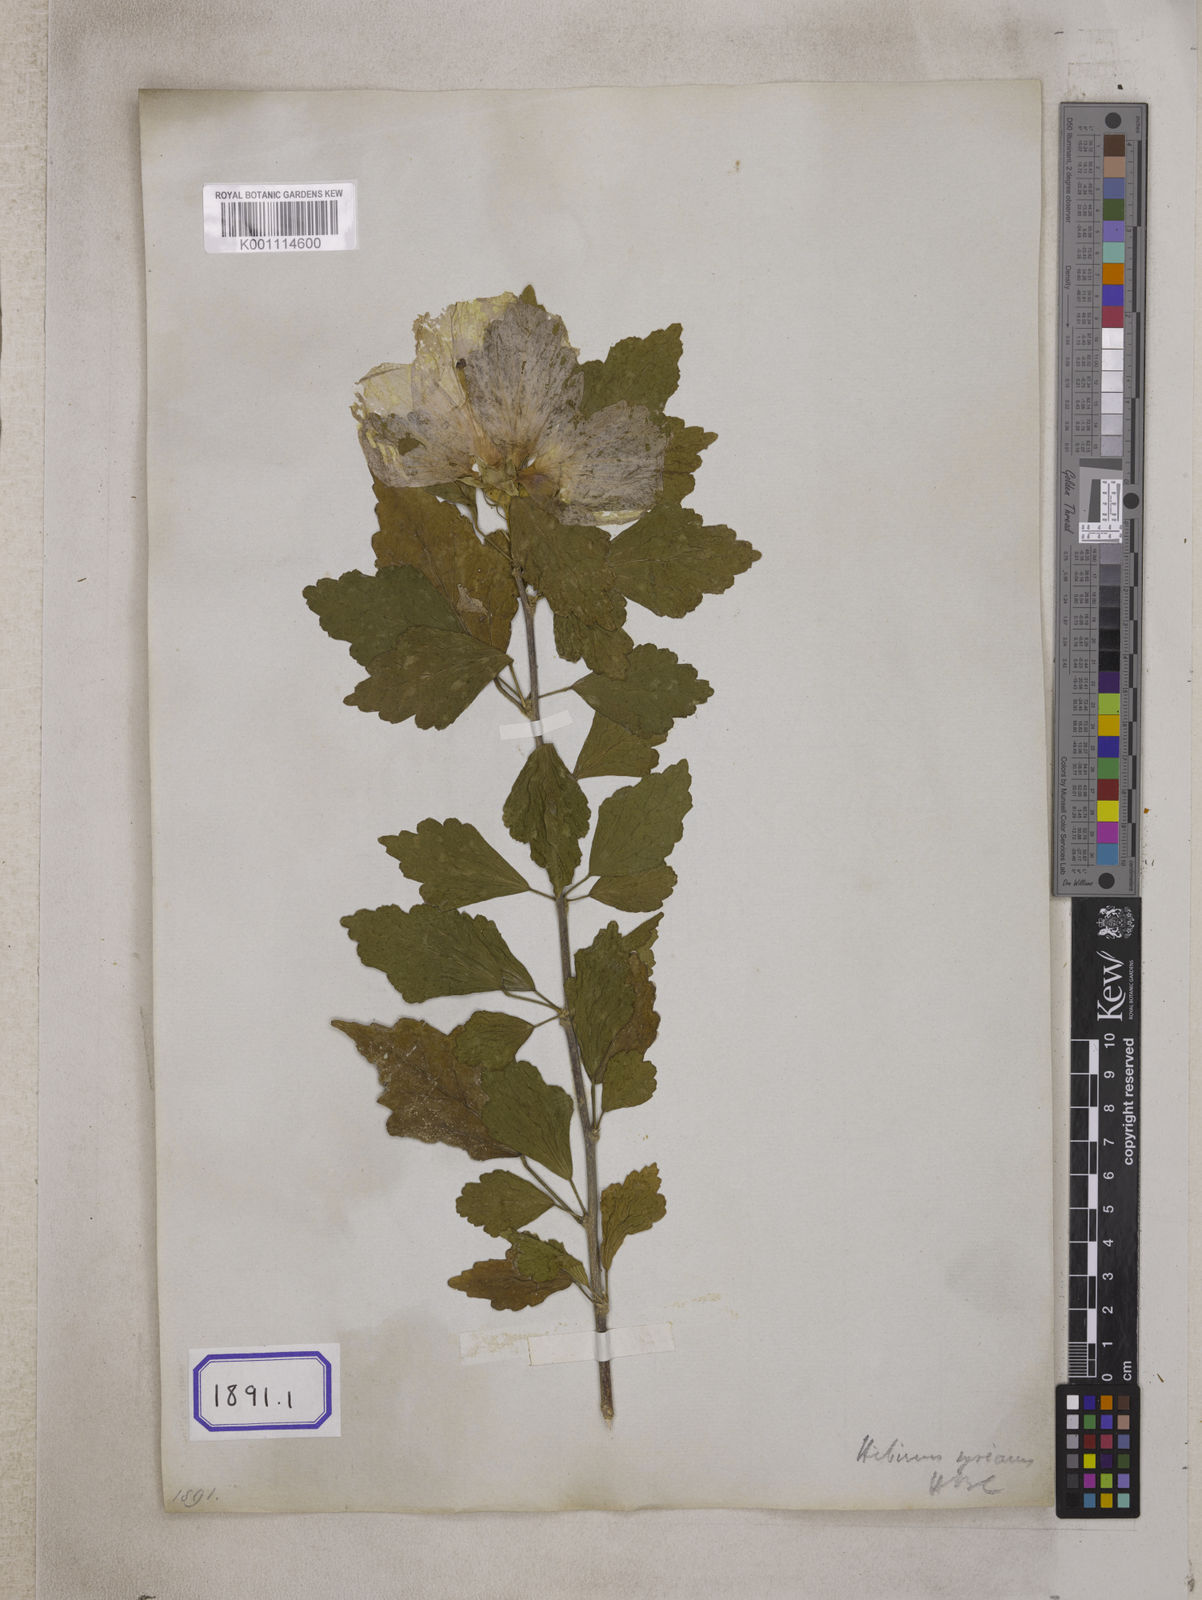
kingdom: Plantae
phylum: Tracheophyta
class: Magnoliopsida
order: Malvales
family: Malvaceae
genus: Hibiscus
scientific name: Hibiscus syriacus
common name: Syrian ketmia
